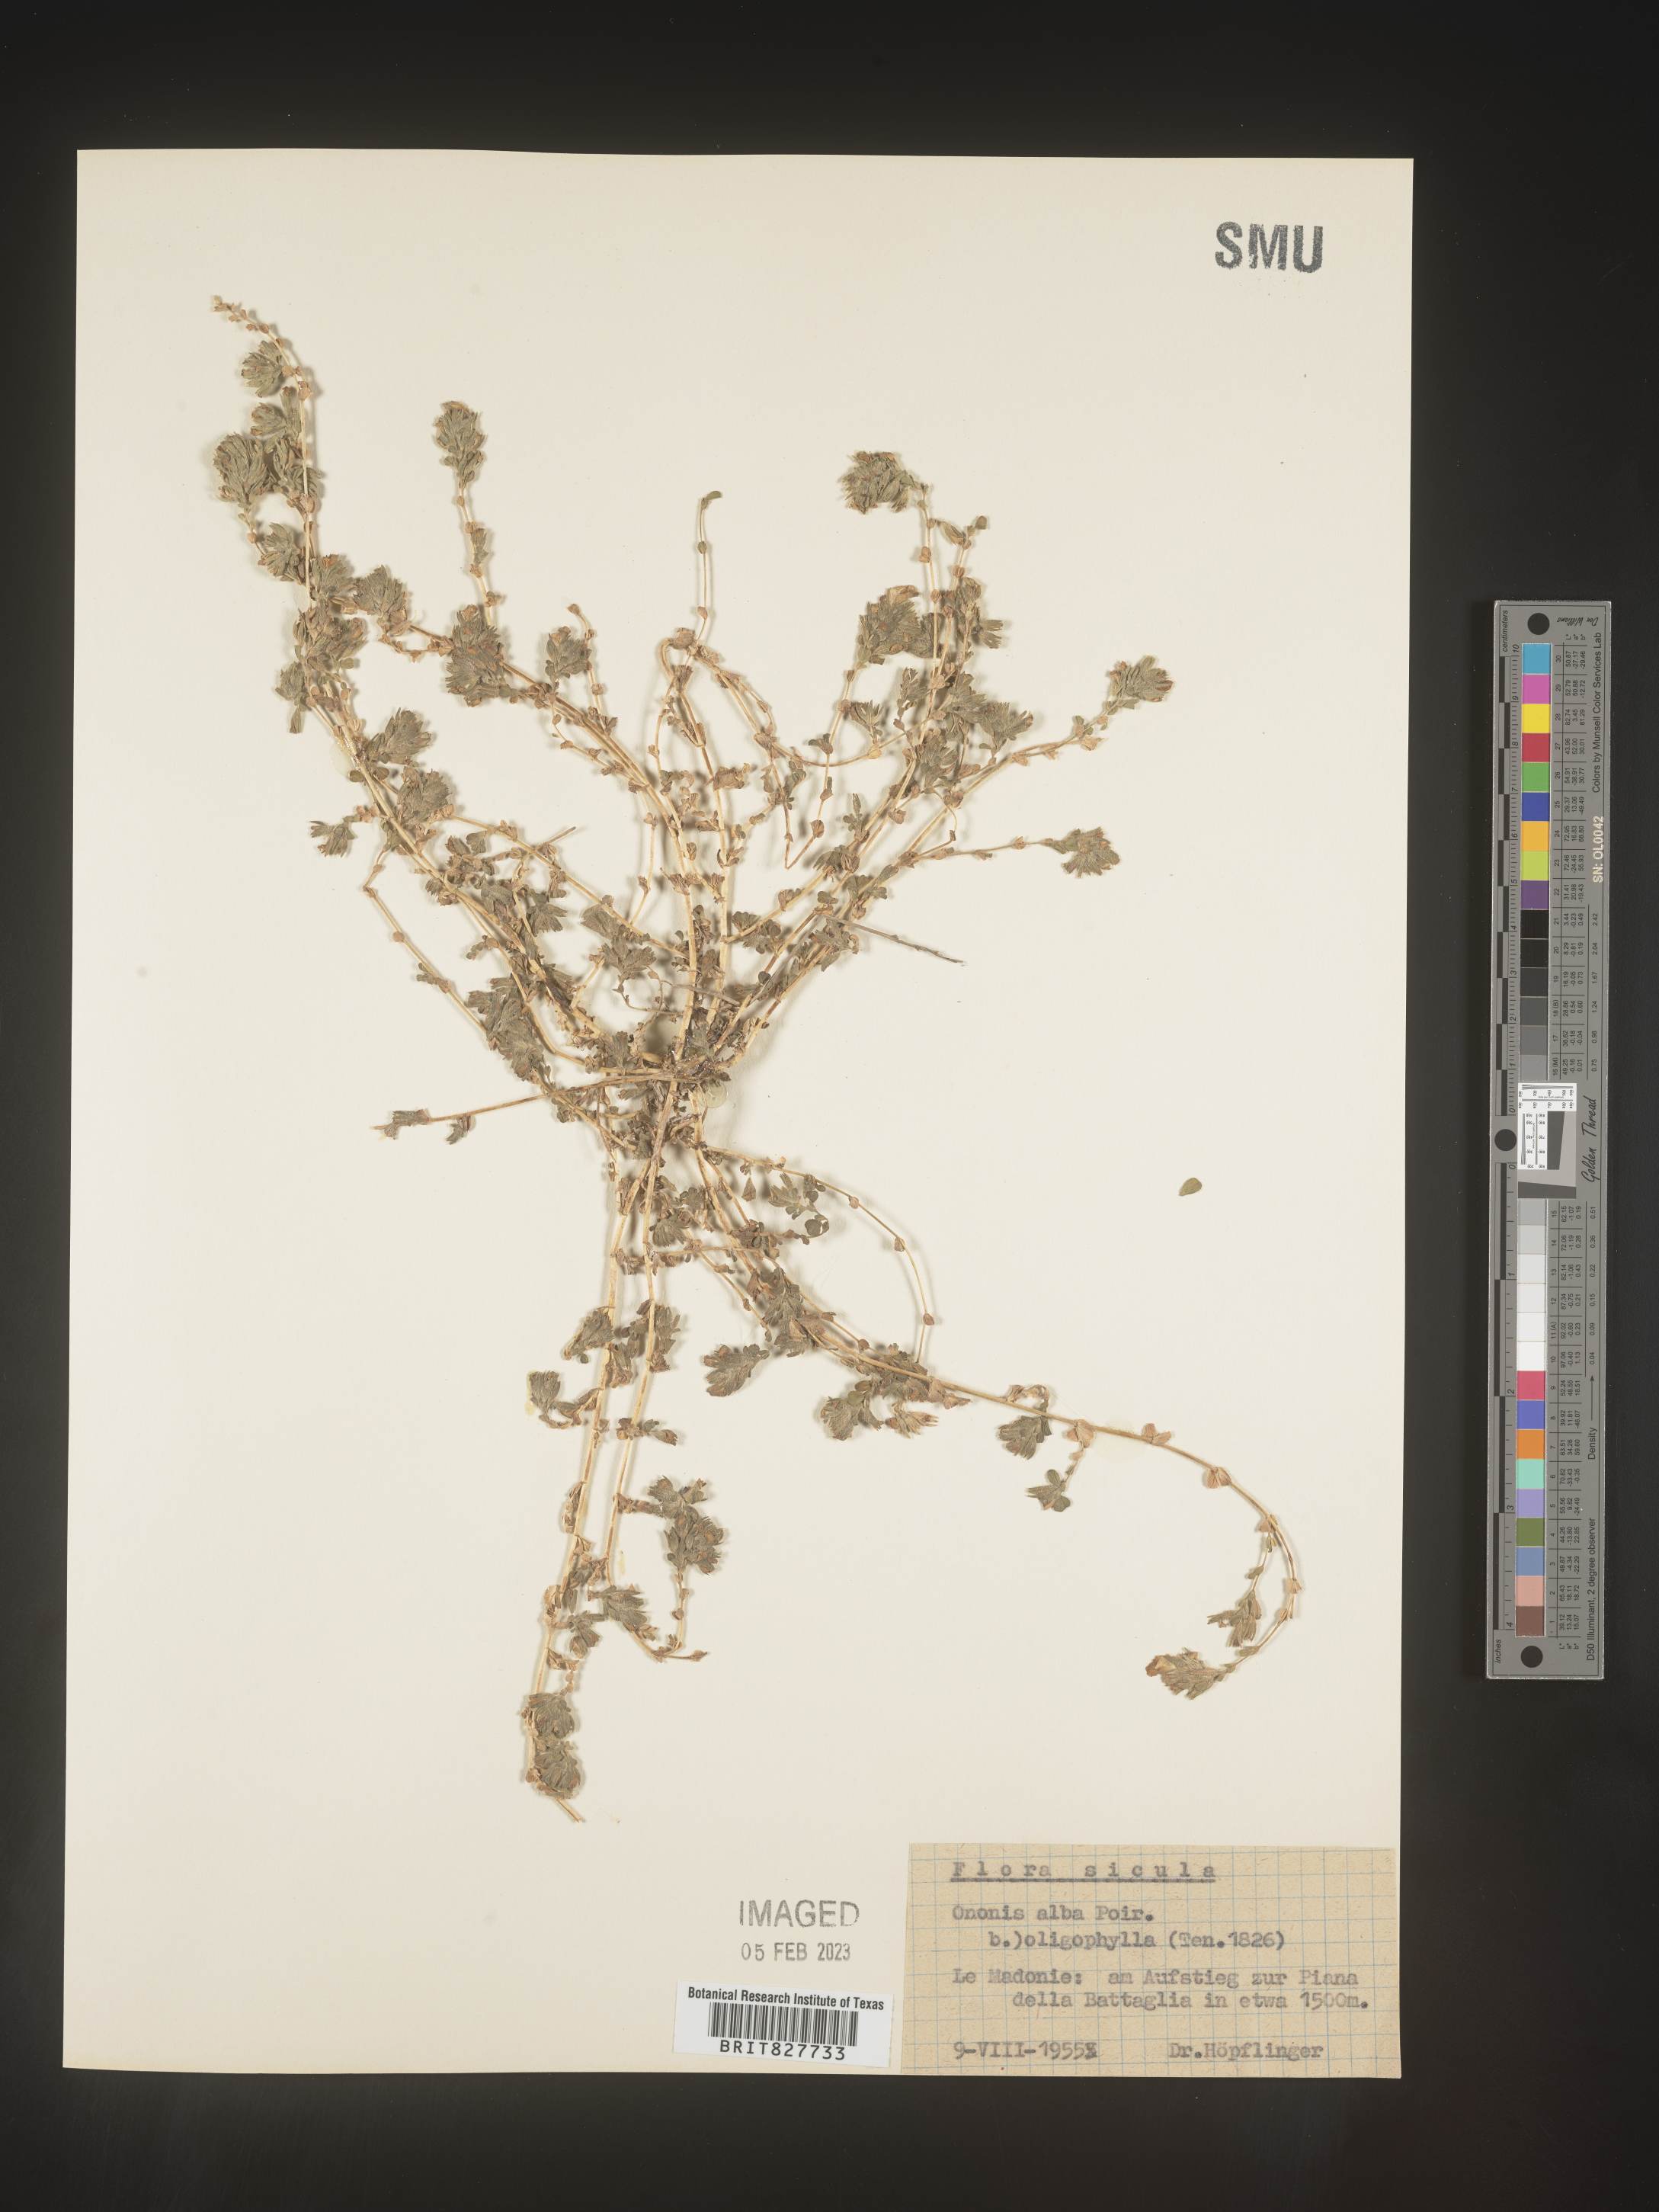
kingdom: Plantae
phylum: Tracheophyta
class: Magnoliopsida
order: Fabales
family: Fabaceae
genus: Ononis
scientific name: Ononis
